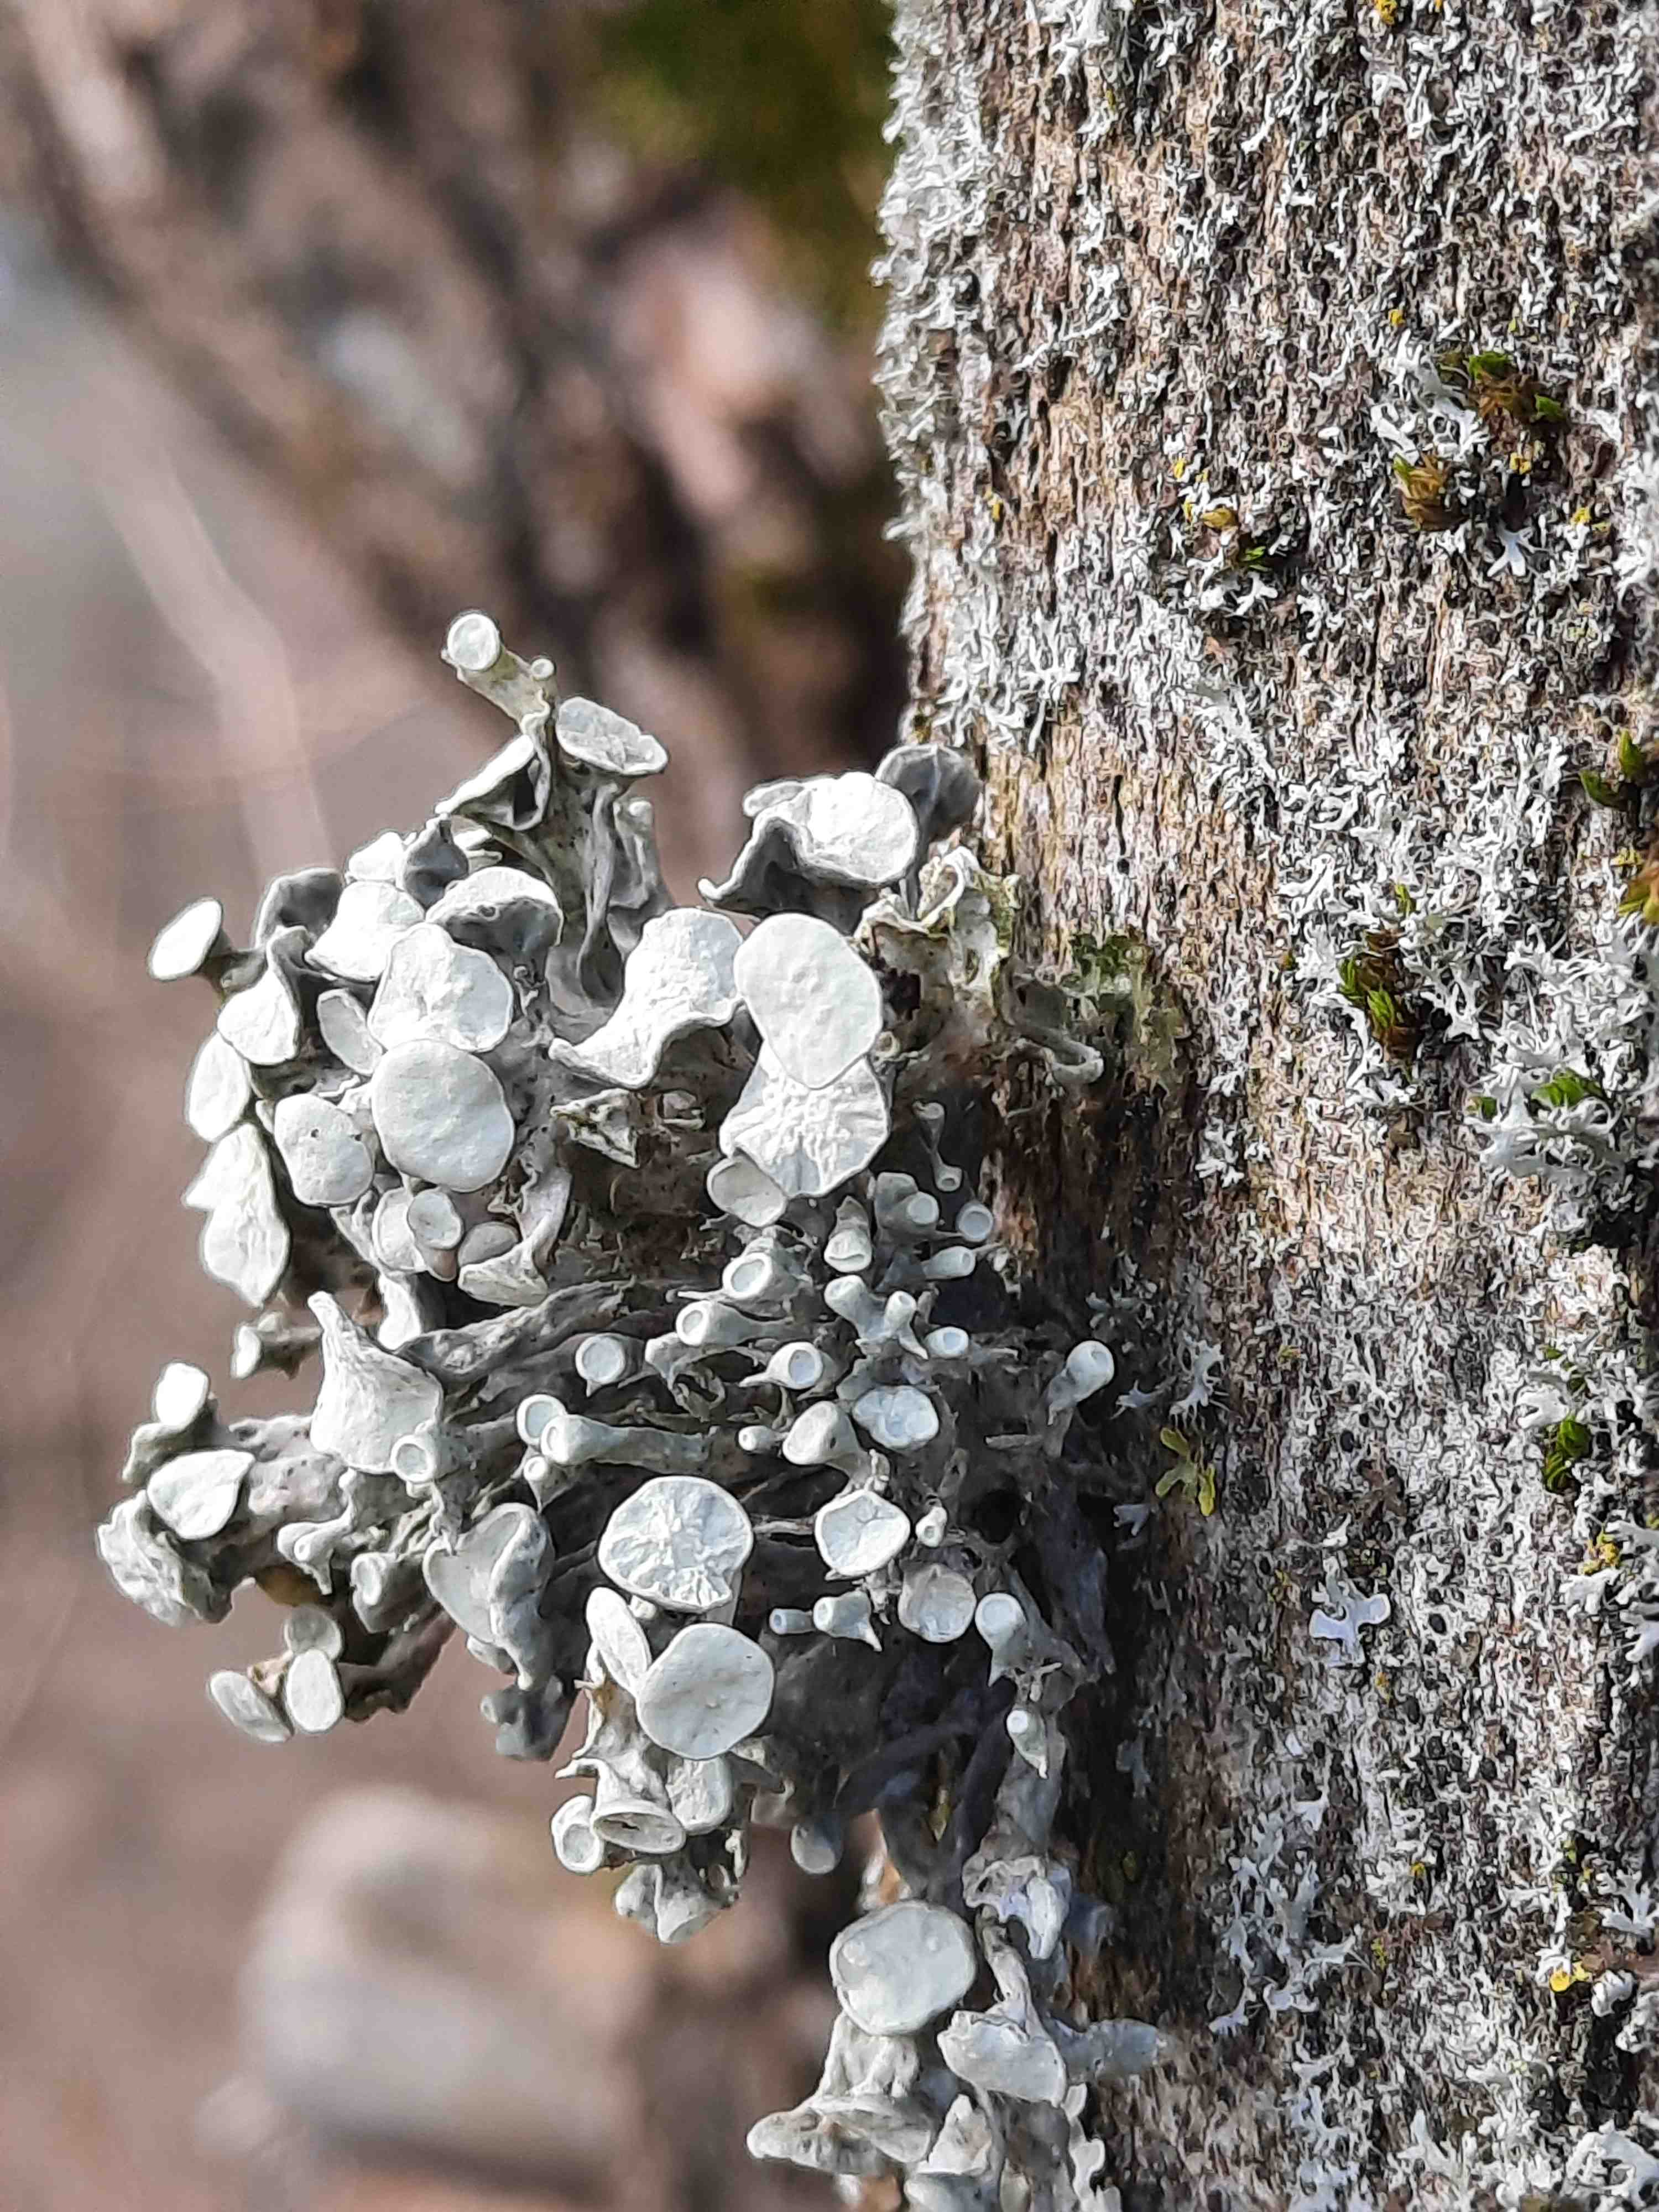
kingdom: Fungi
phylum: Ascomycota
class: Lecanoromycetes
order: Lecanorales
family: Ramalinaceae
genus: Ramalina
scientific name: Ramalina fastigiata
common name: tue-grenlav
